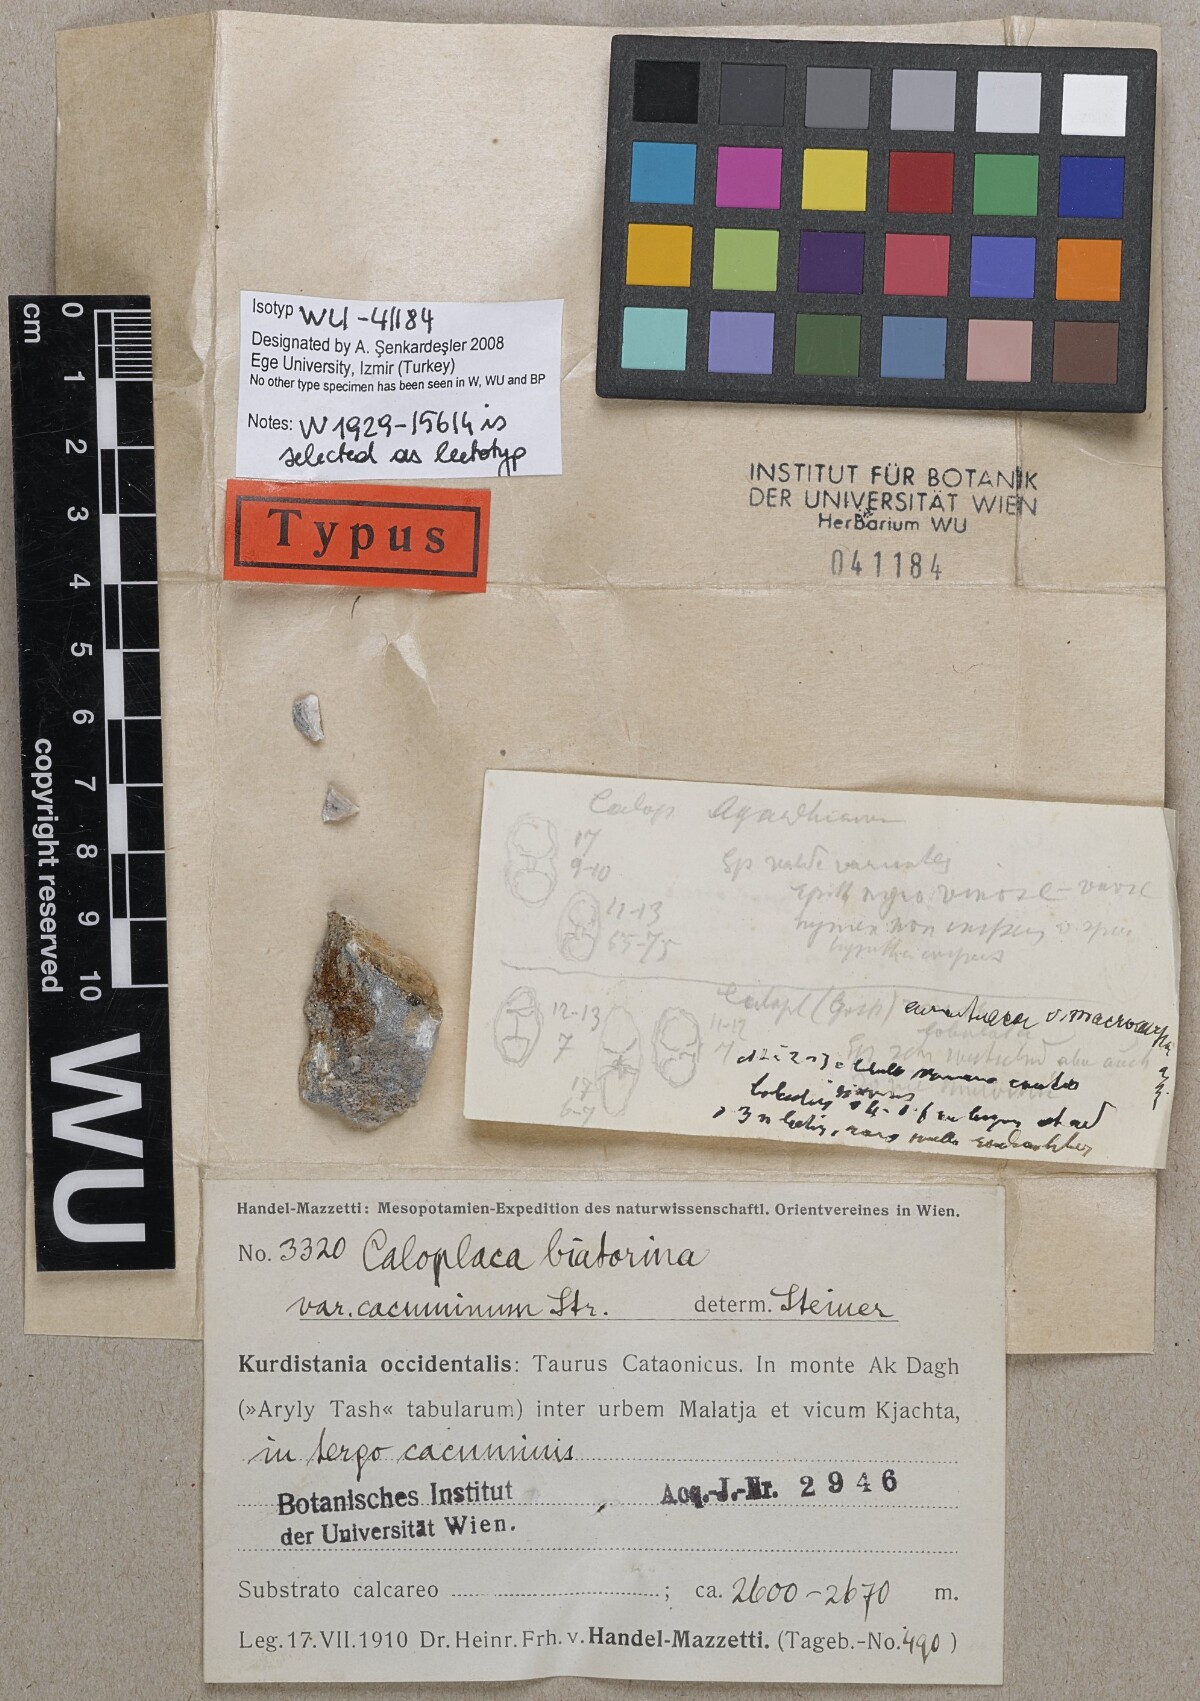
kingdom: Fungi
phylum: Ascomycota
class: Lecanoromycetes
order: Teloschistales
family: Teloschistaceae
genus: Calogaya
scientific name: Calogaya biatorina
